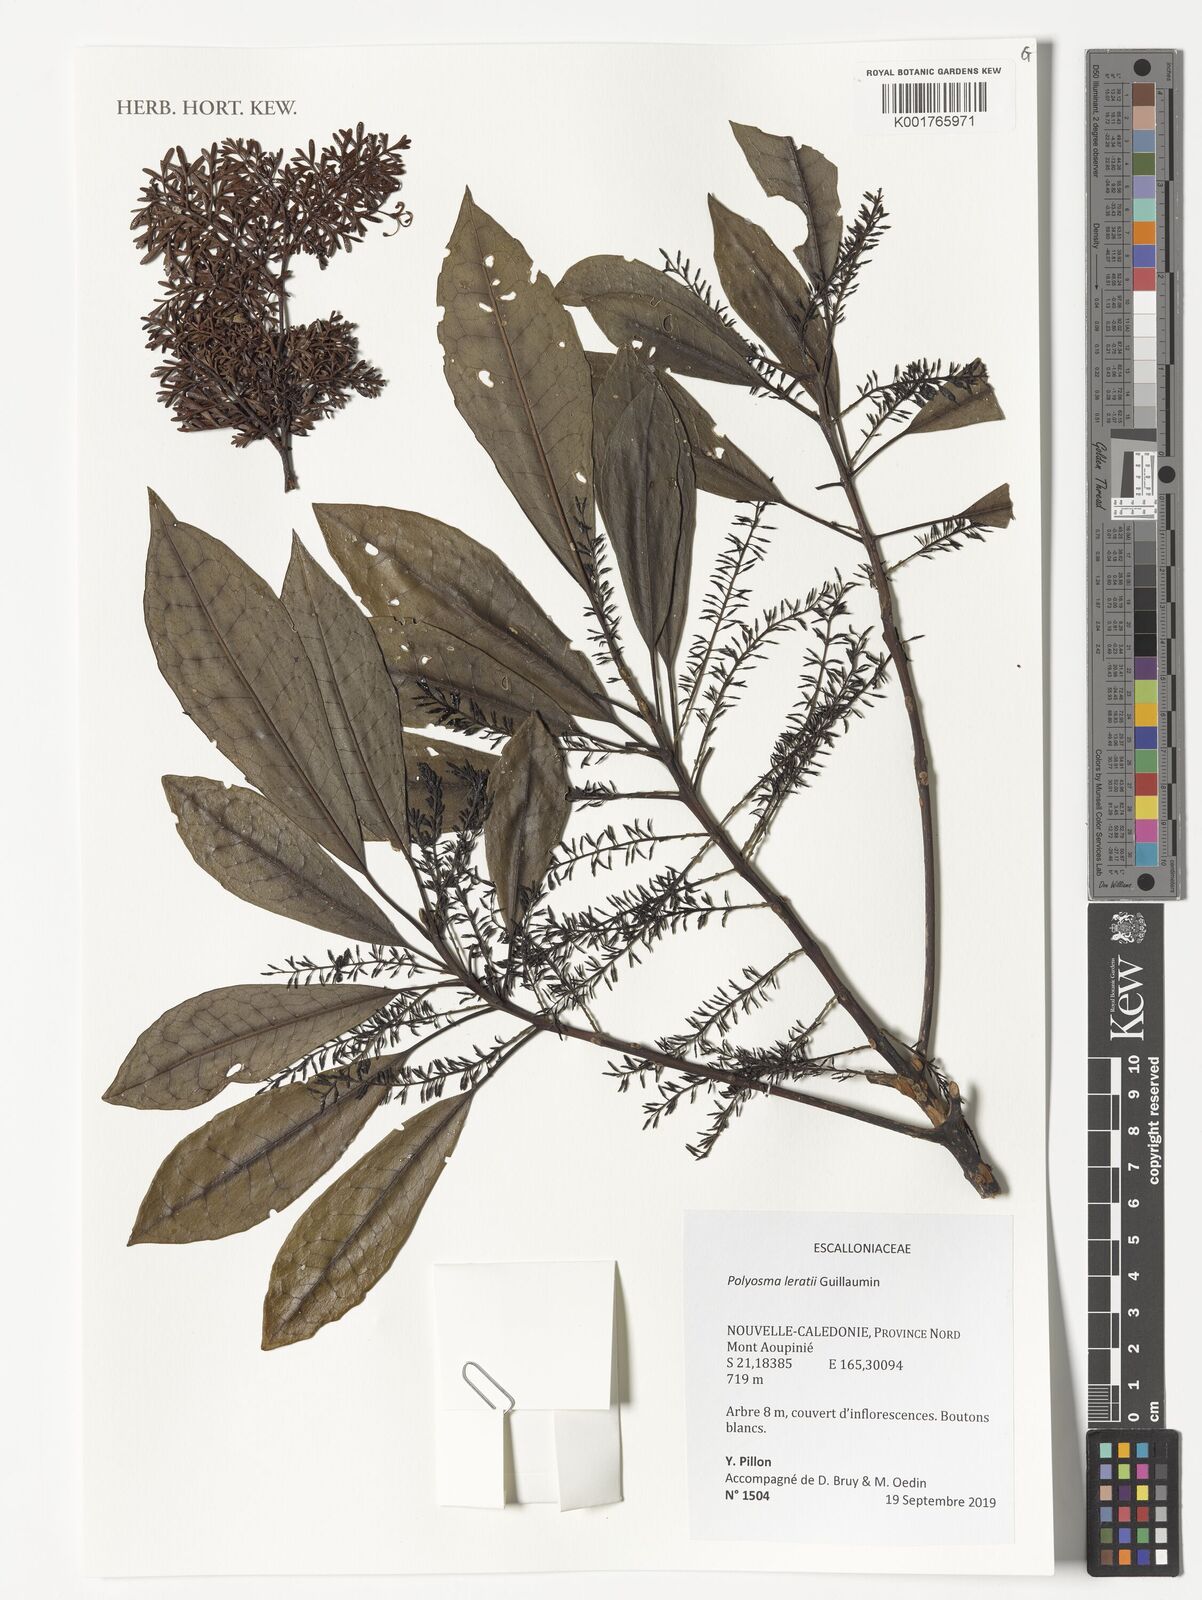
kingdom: Plantae
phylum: Tracheophyta
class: Magnoliopsida
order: Escalloniales
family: Escalloniaceae
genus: Polyosma
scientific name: Polyosma leratii
